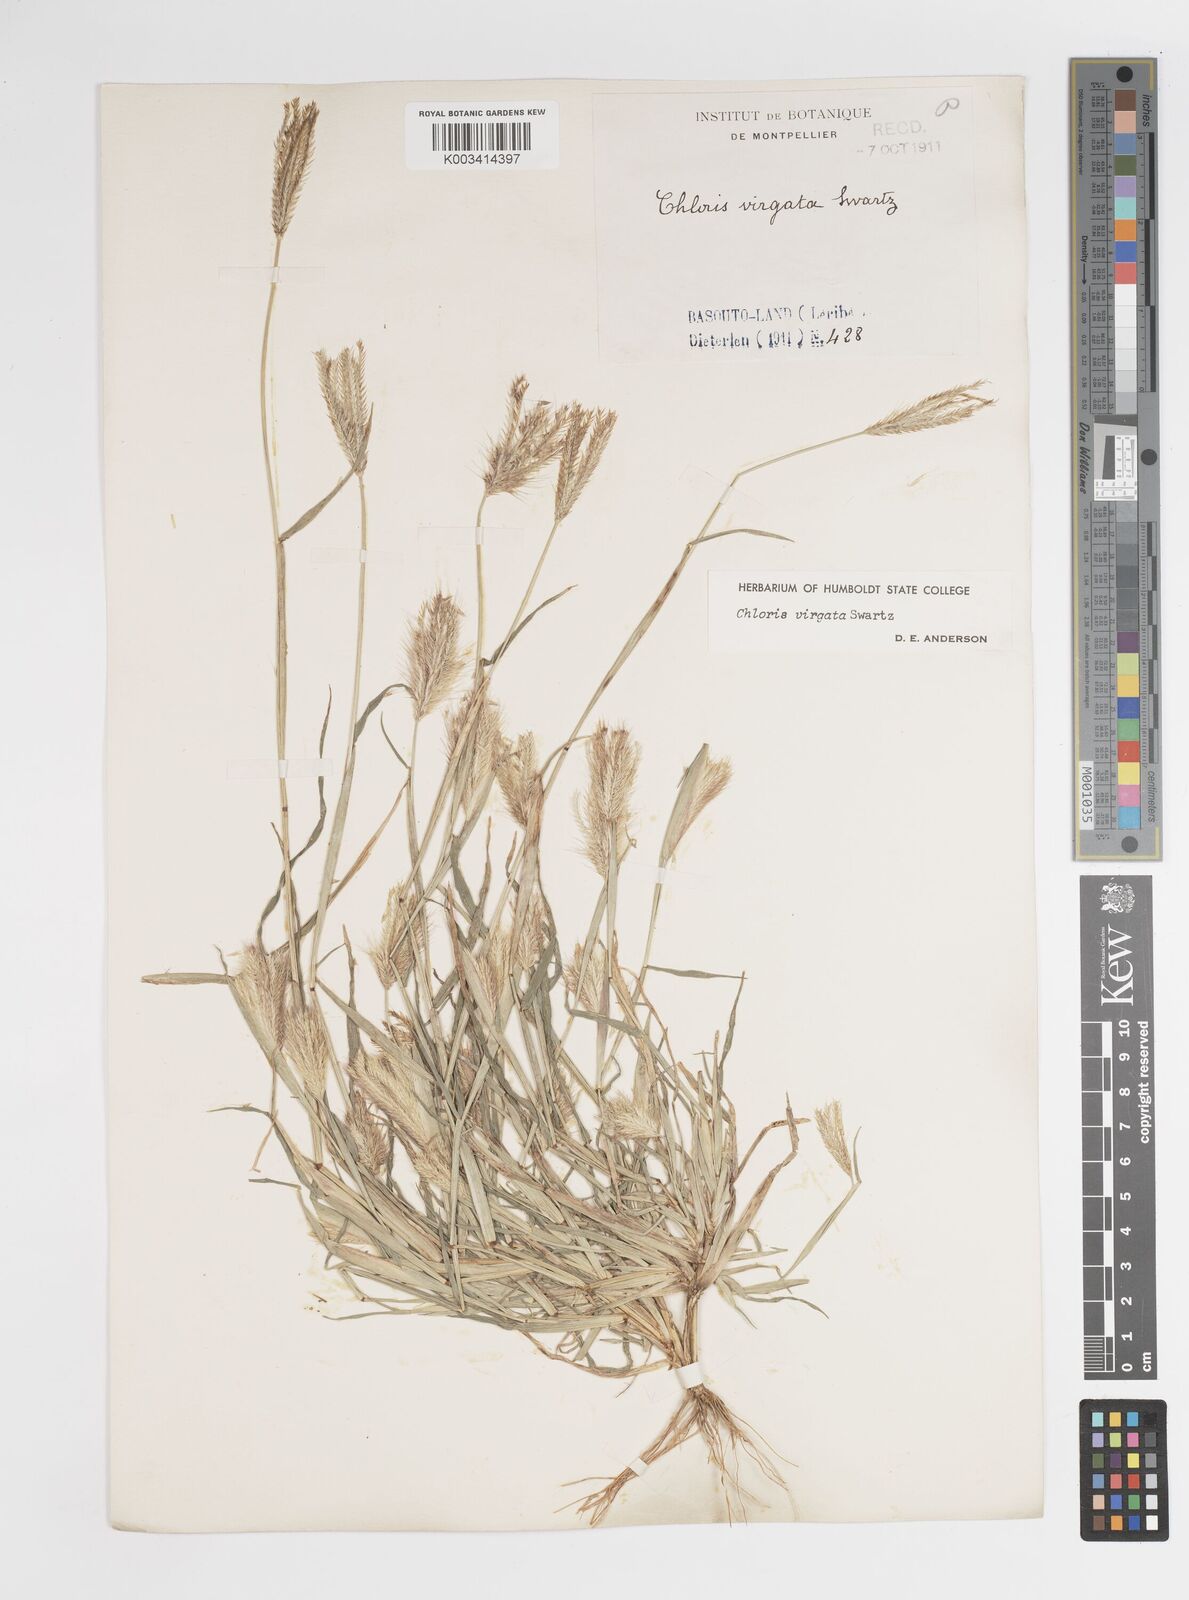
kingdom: Plantae
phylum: Tracheophyta
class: Liliopsida
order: Poales
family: Poaceae
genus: Chloris
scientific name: Chloris virgata
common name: Feathery rhodes-grass
